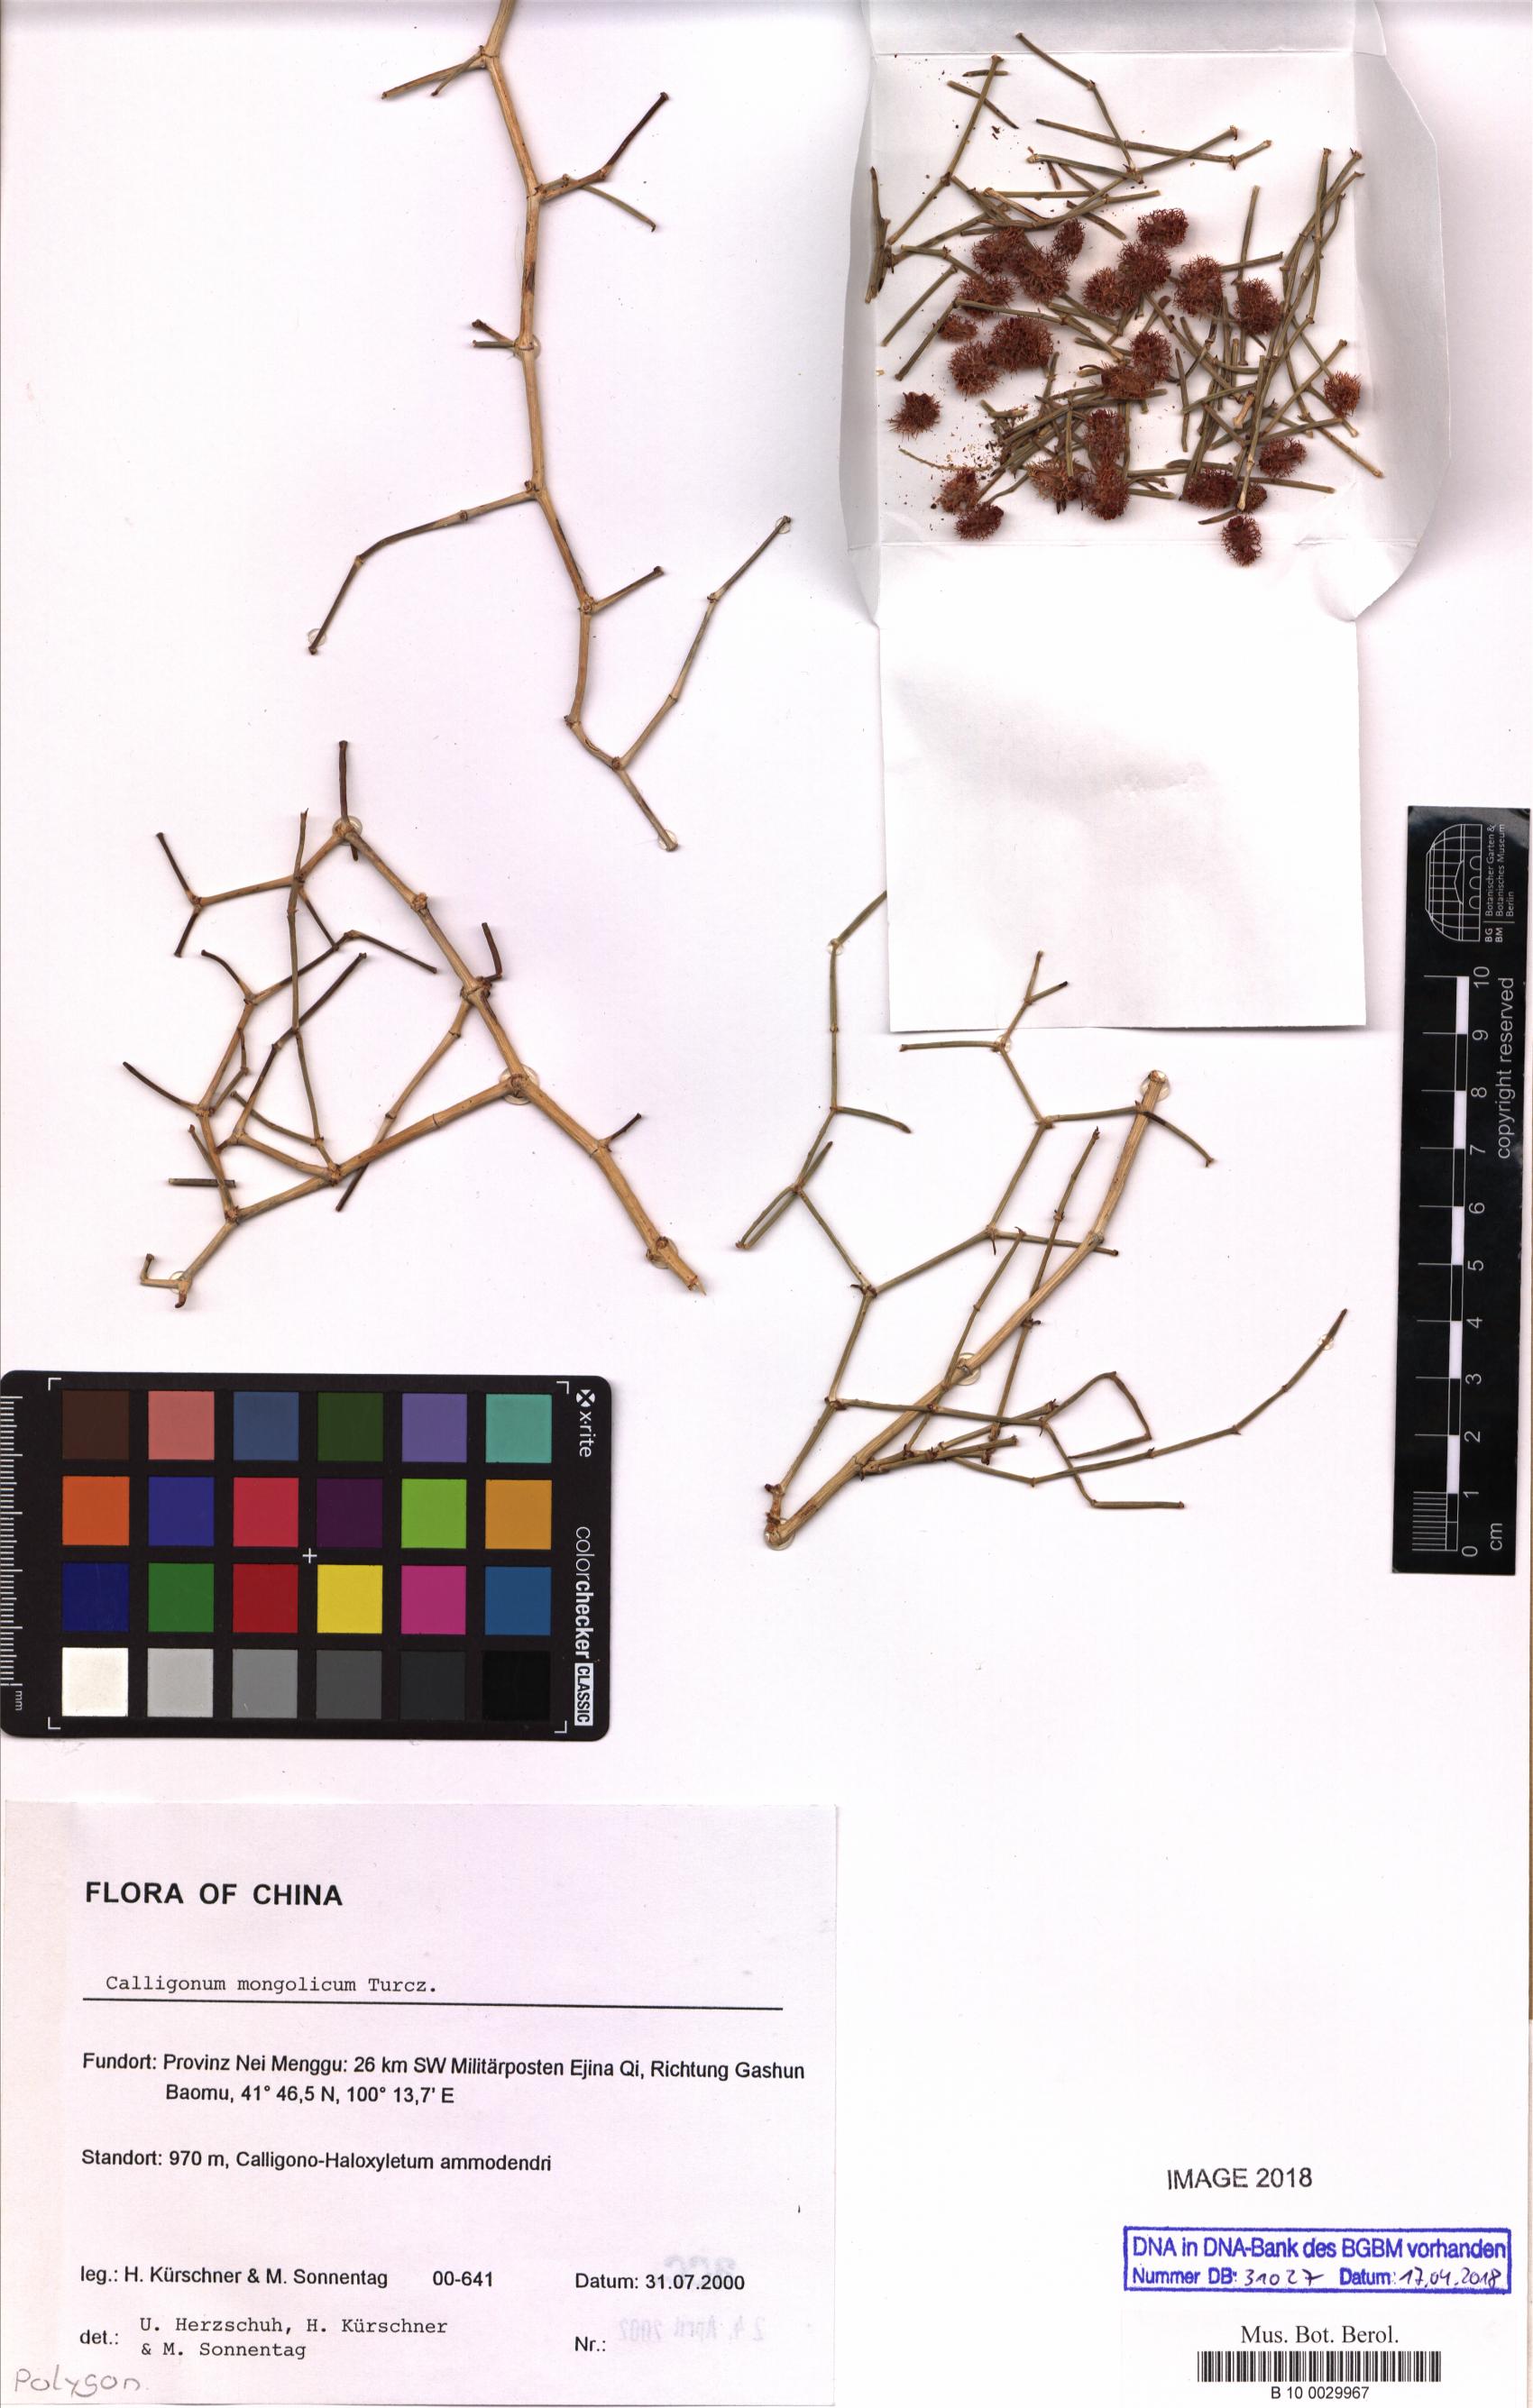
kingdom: Plantae
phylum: Tracheophyta
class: Magnoliopsida
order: Caryophyllales
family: Polygonaceae
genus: Calligonum
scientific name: Calligonum mongolicum
